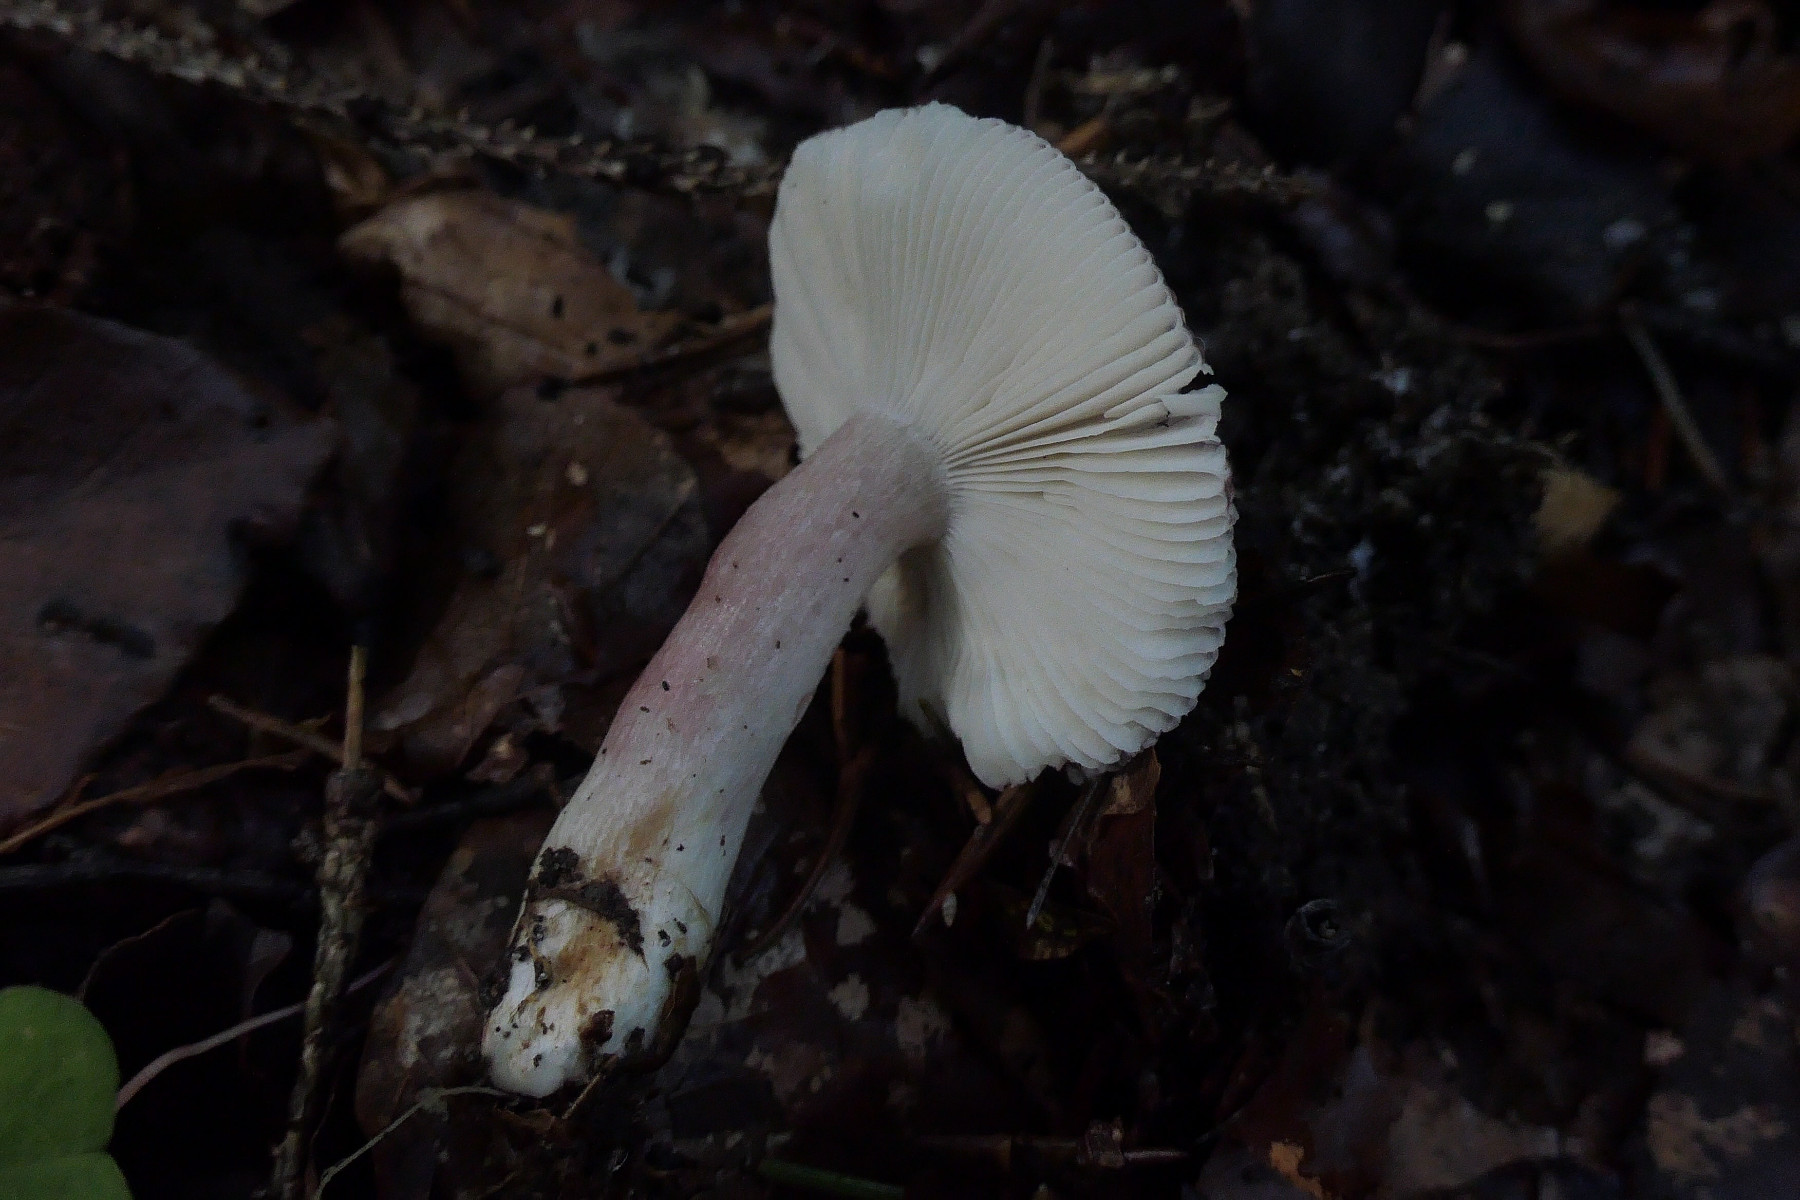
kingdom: Fungi
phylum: Basidiomycota
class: Agaricomycetes
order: Russulales
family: Russulaceae
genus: Russula
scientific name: Russula queletii
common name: Quélets skørhat
